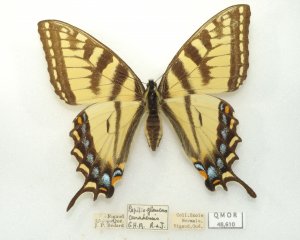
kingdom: Animalia
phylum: Arthropoda
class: Insecta
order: Lepidoptera
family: Papilionidae
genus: Pterourus
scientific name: Pterourus canadensis
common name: Canadian Tiger Swallowtail
